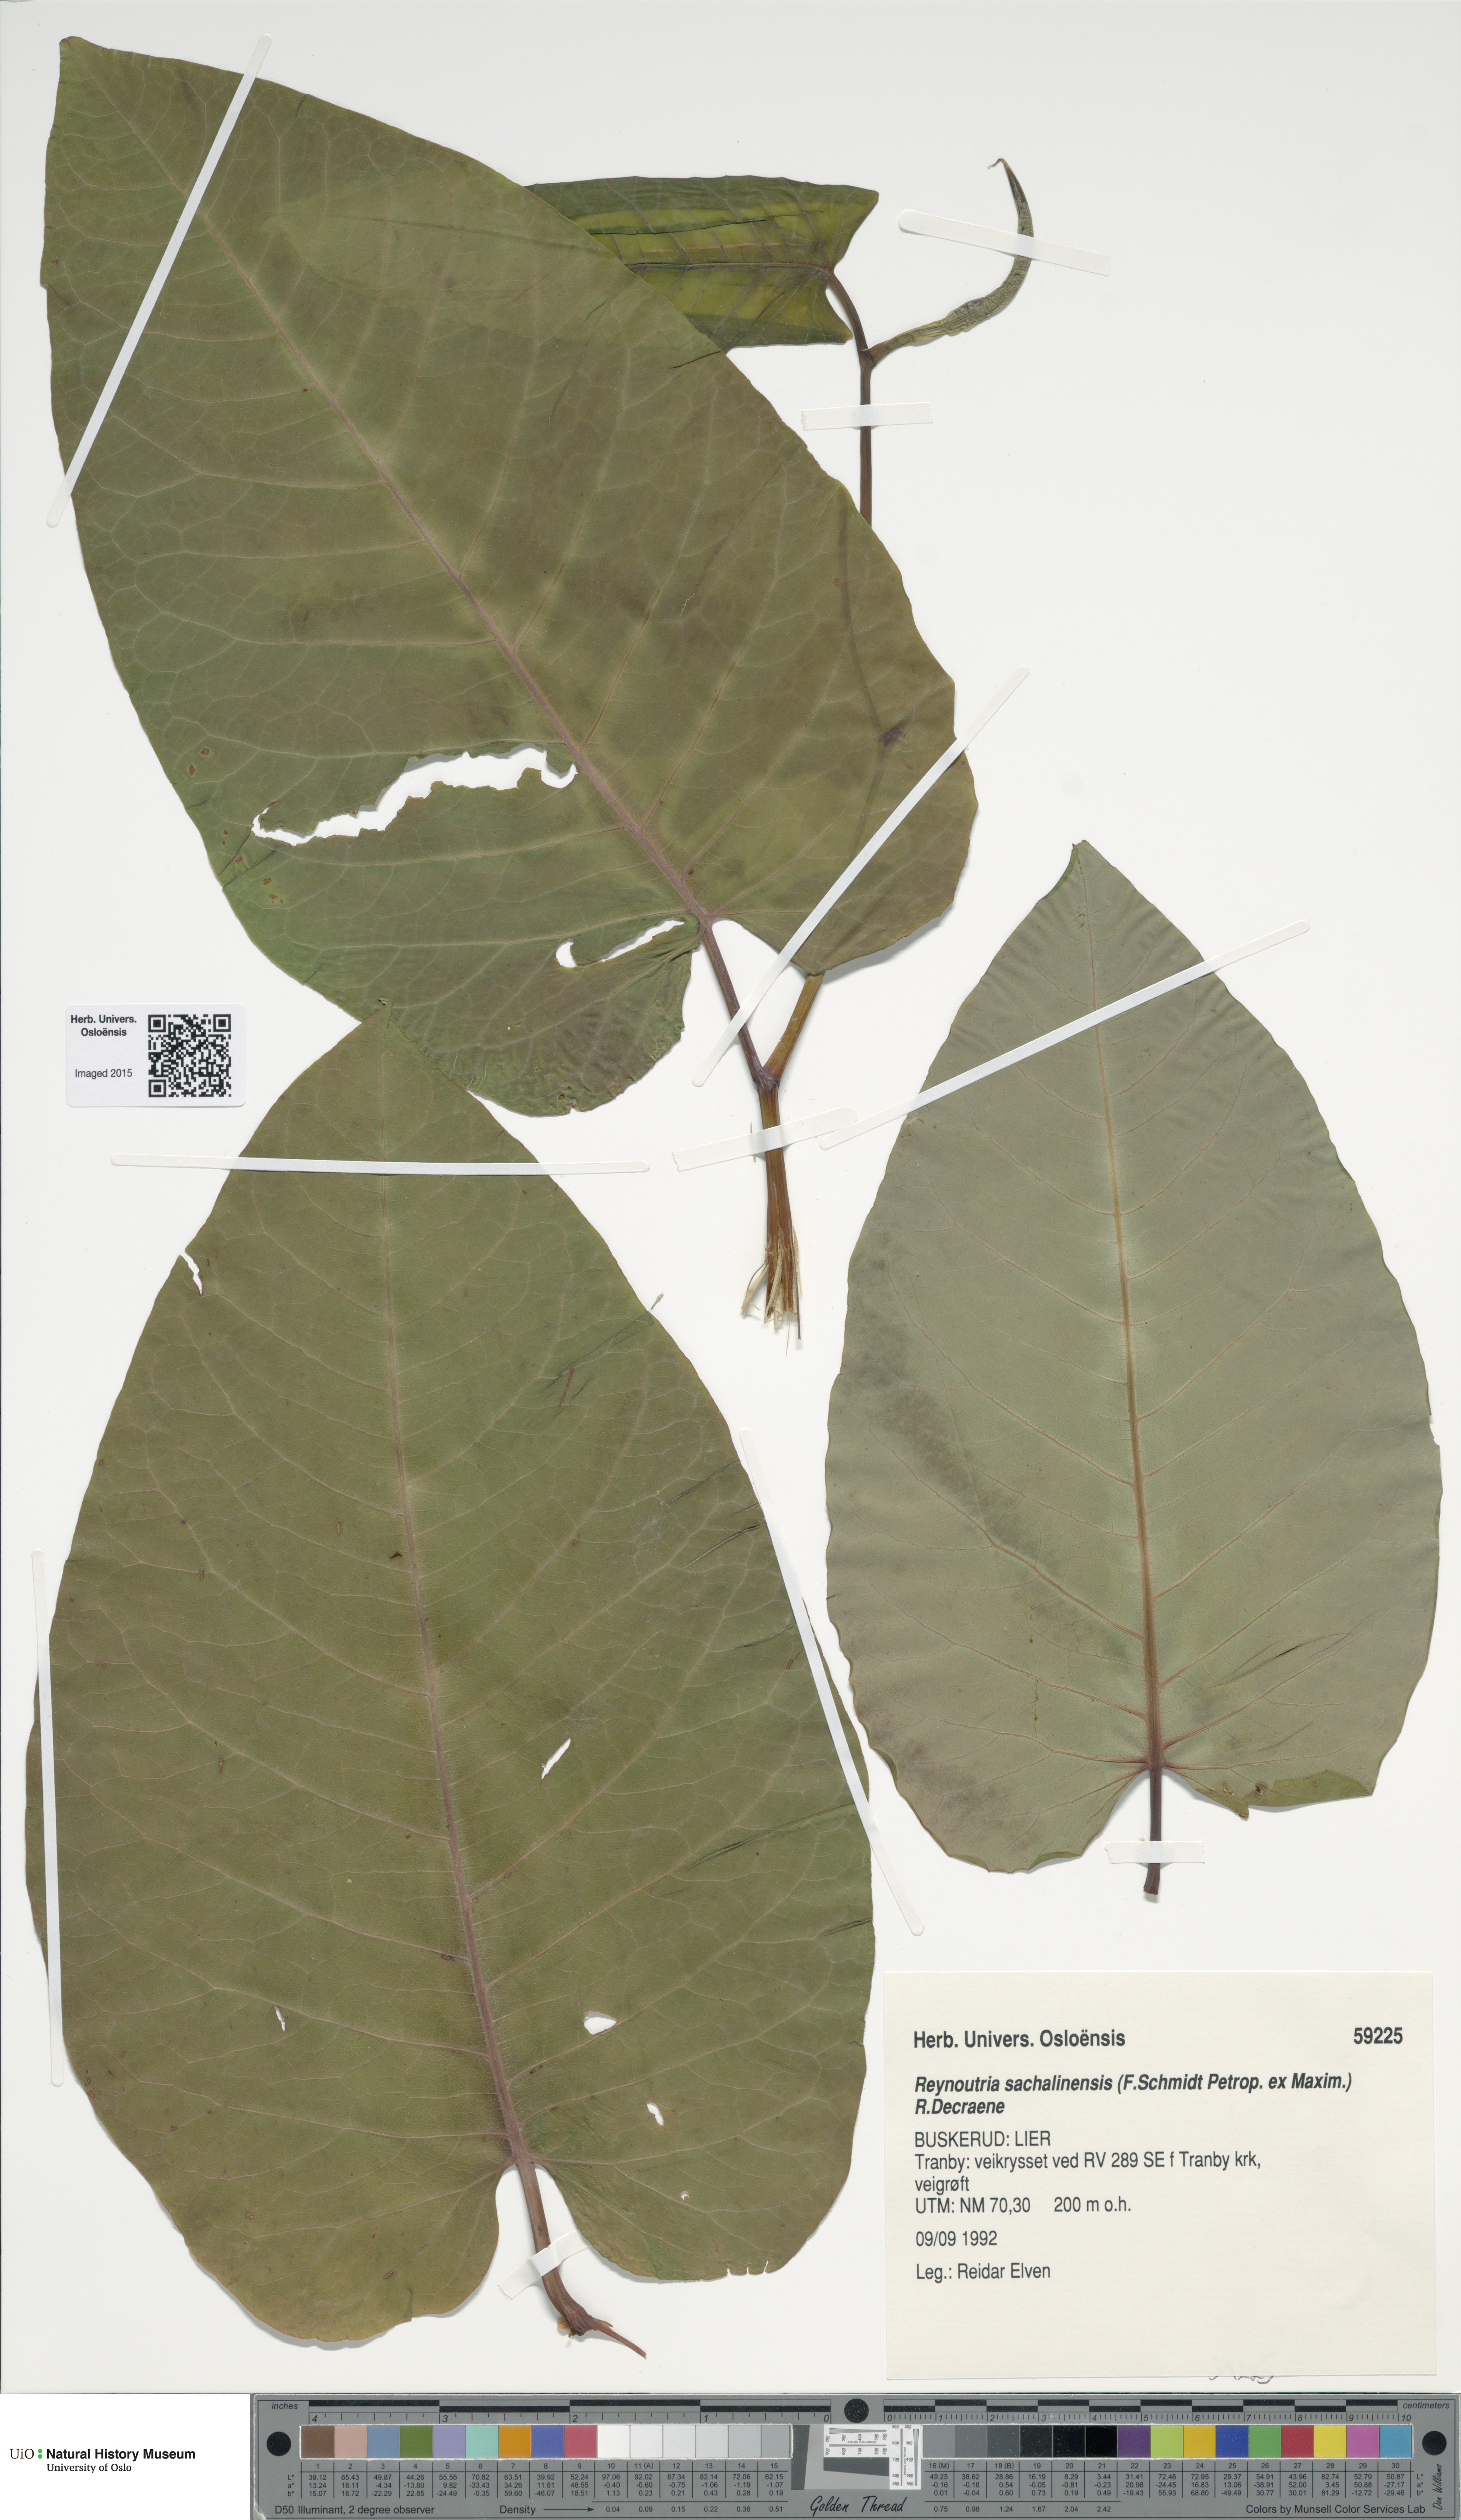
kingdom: Plantae
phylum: Tracheophyta
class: Magnoliopsida
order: Caryophyllales
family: Polygonaceae
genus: Reynoutria
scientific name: Reynoutria sachalinensis
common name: Giant knotweed
